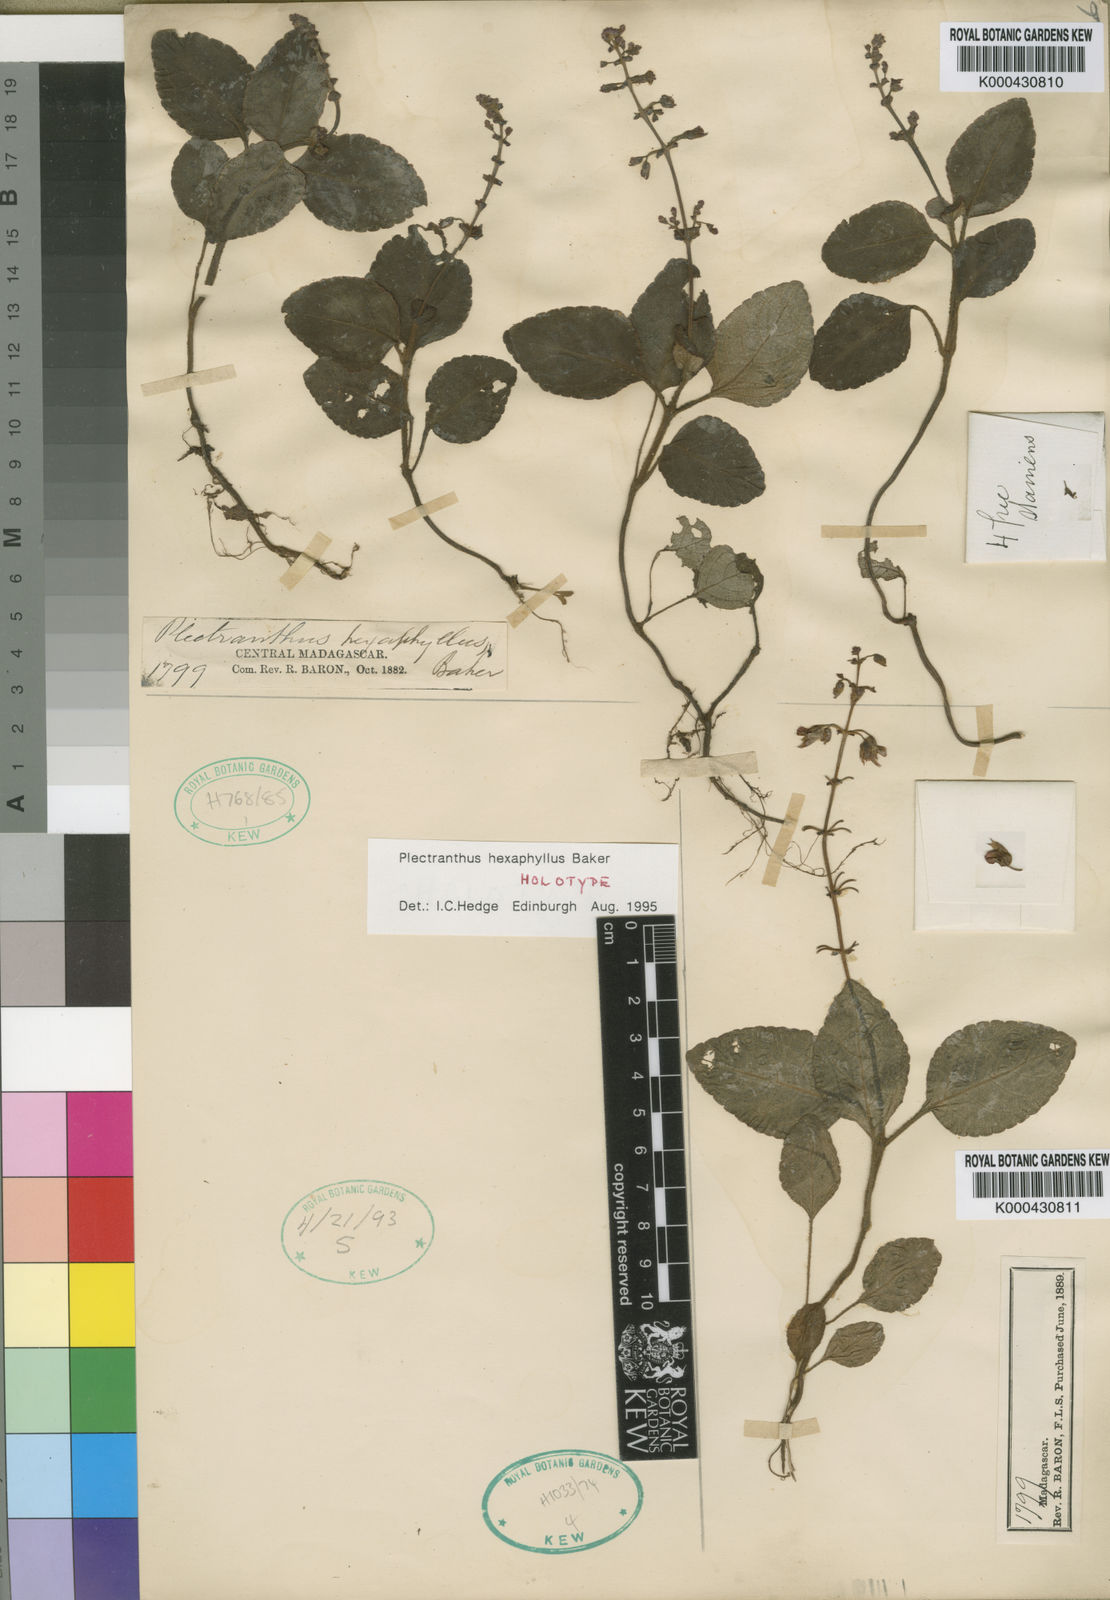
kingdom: Plantae
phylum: Tracheophyta
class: Magnoliopsida
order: Lamiales
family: Lamiaceae
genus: Plectranthus
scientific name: Plectranthus hexaphyllus
